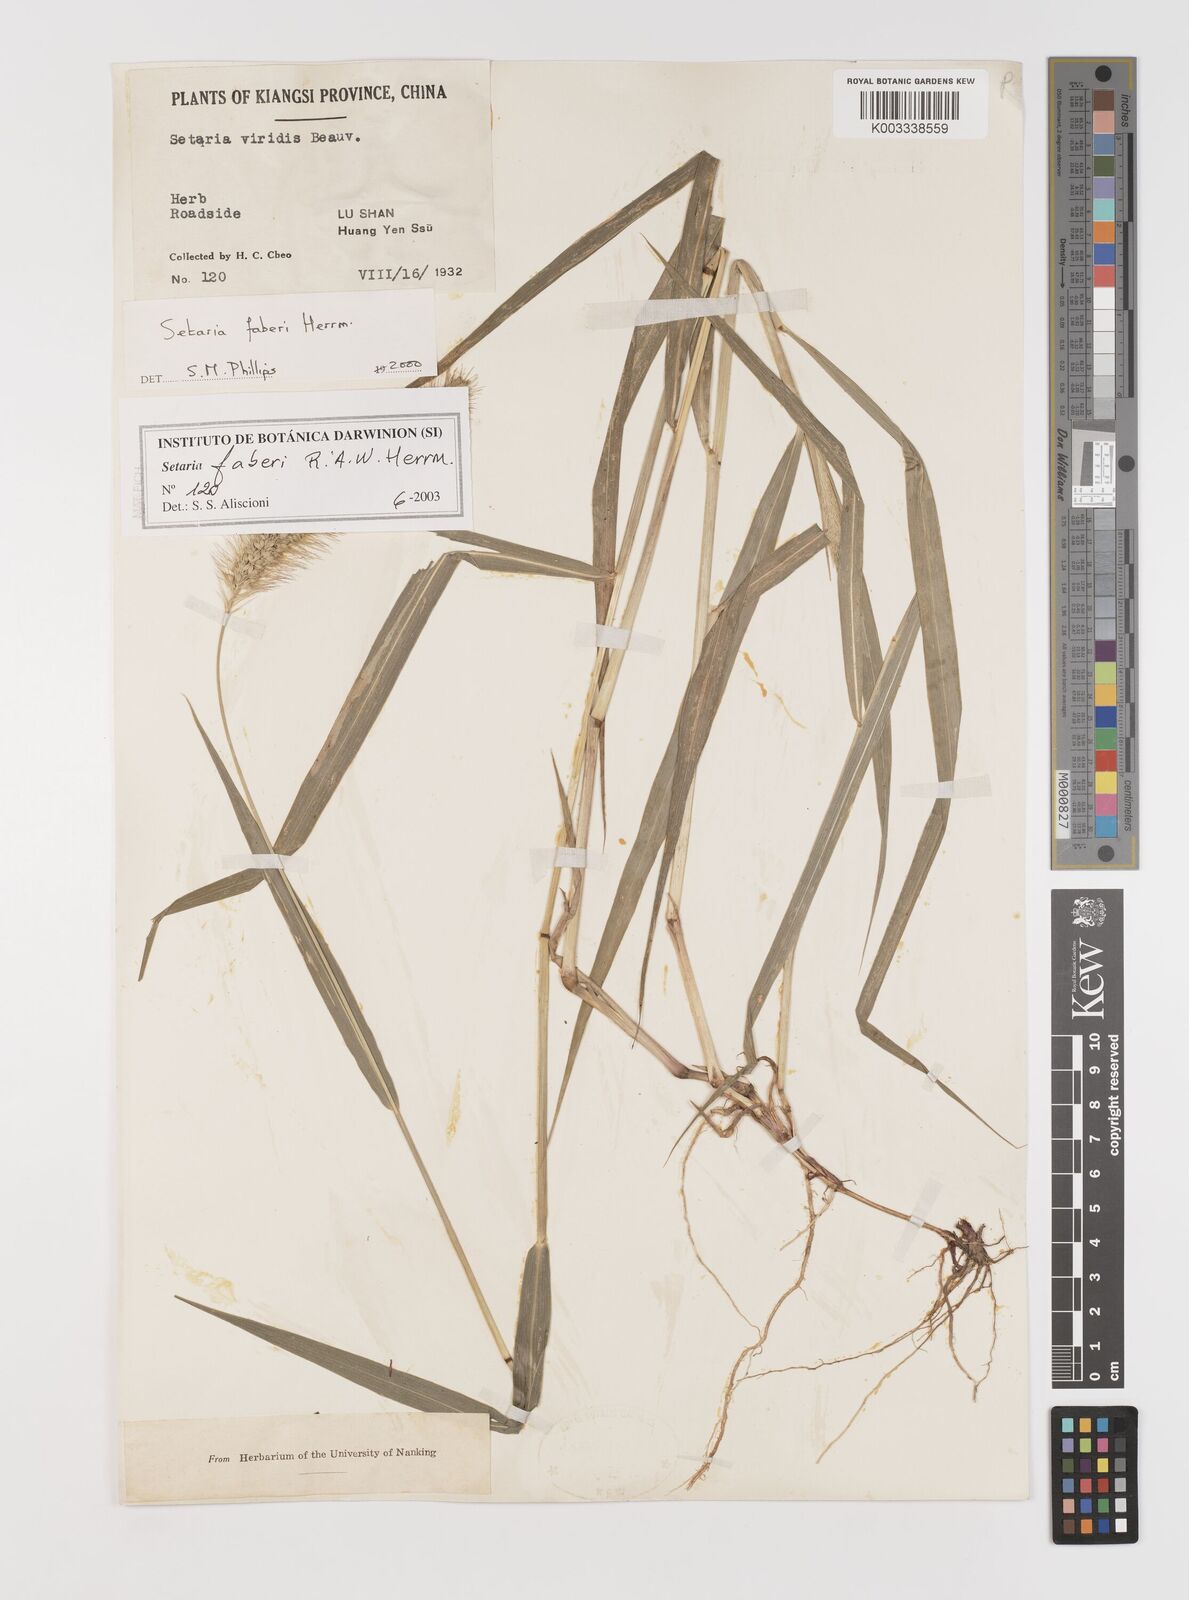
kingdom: Plantae
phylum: Tracheophyta
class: Liliopsida
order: Poales
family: Poaceae
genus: Setaria
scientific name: Setaria faberi
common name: Nodding bristle-grass
